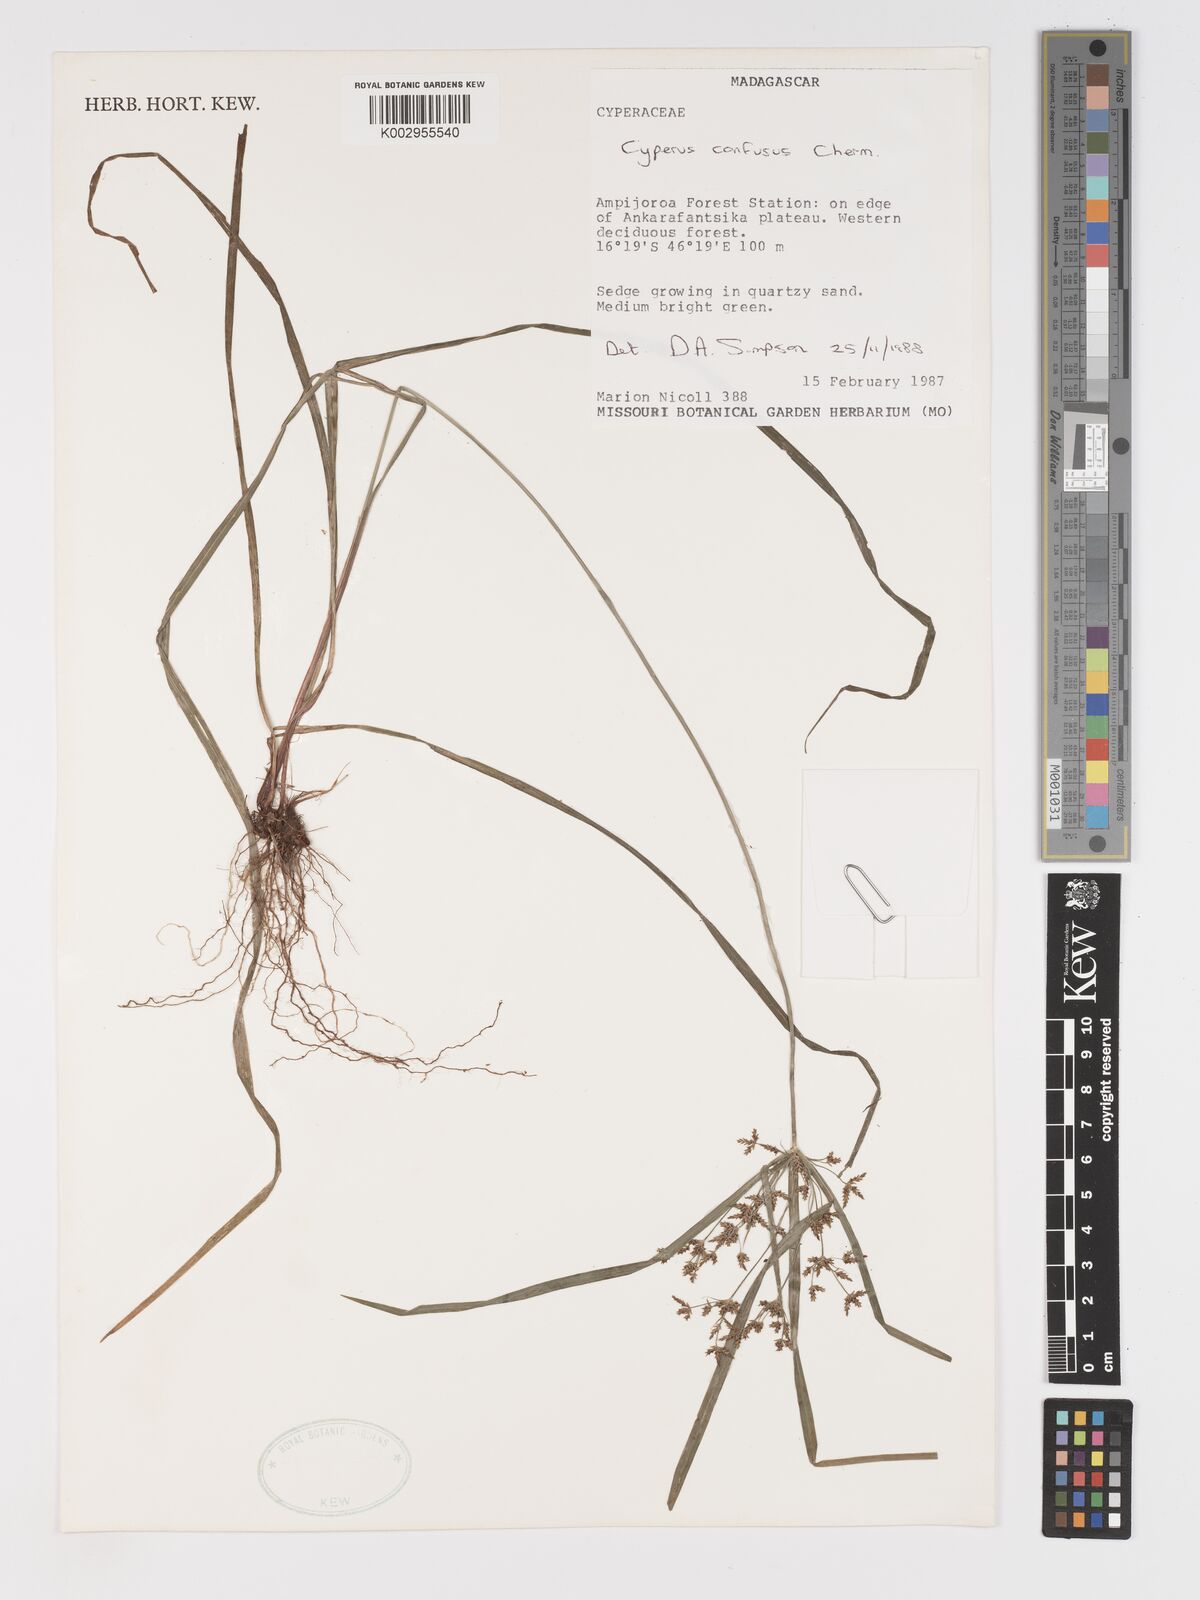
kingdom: Plantae
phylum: Tracheophyta
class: Liliopsida
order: Poales
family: Cyperaceae
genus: Cyperus
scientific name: Cyperus longifolius
